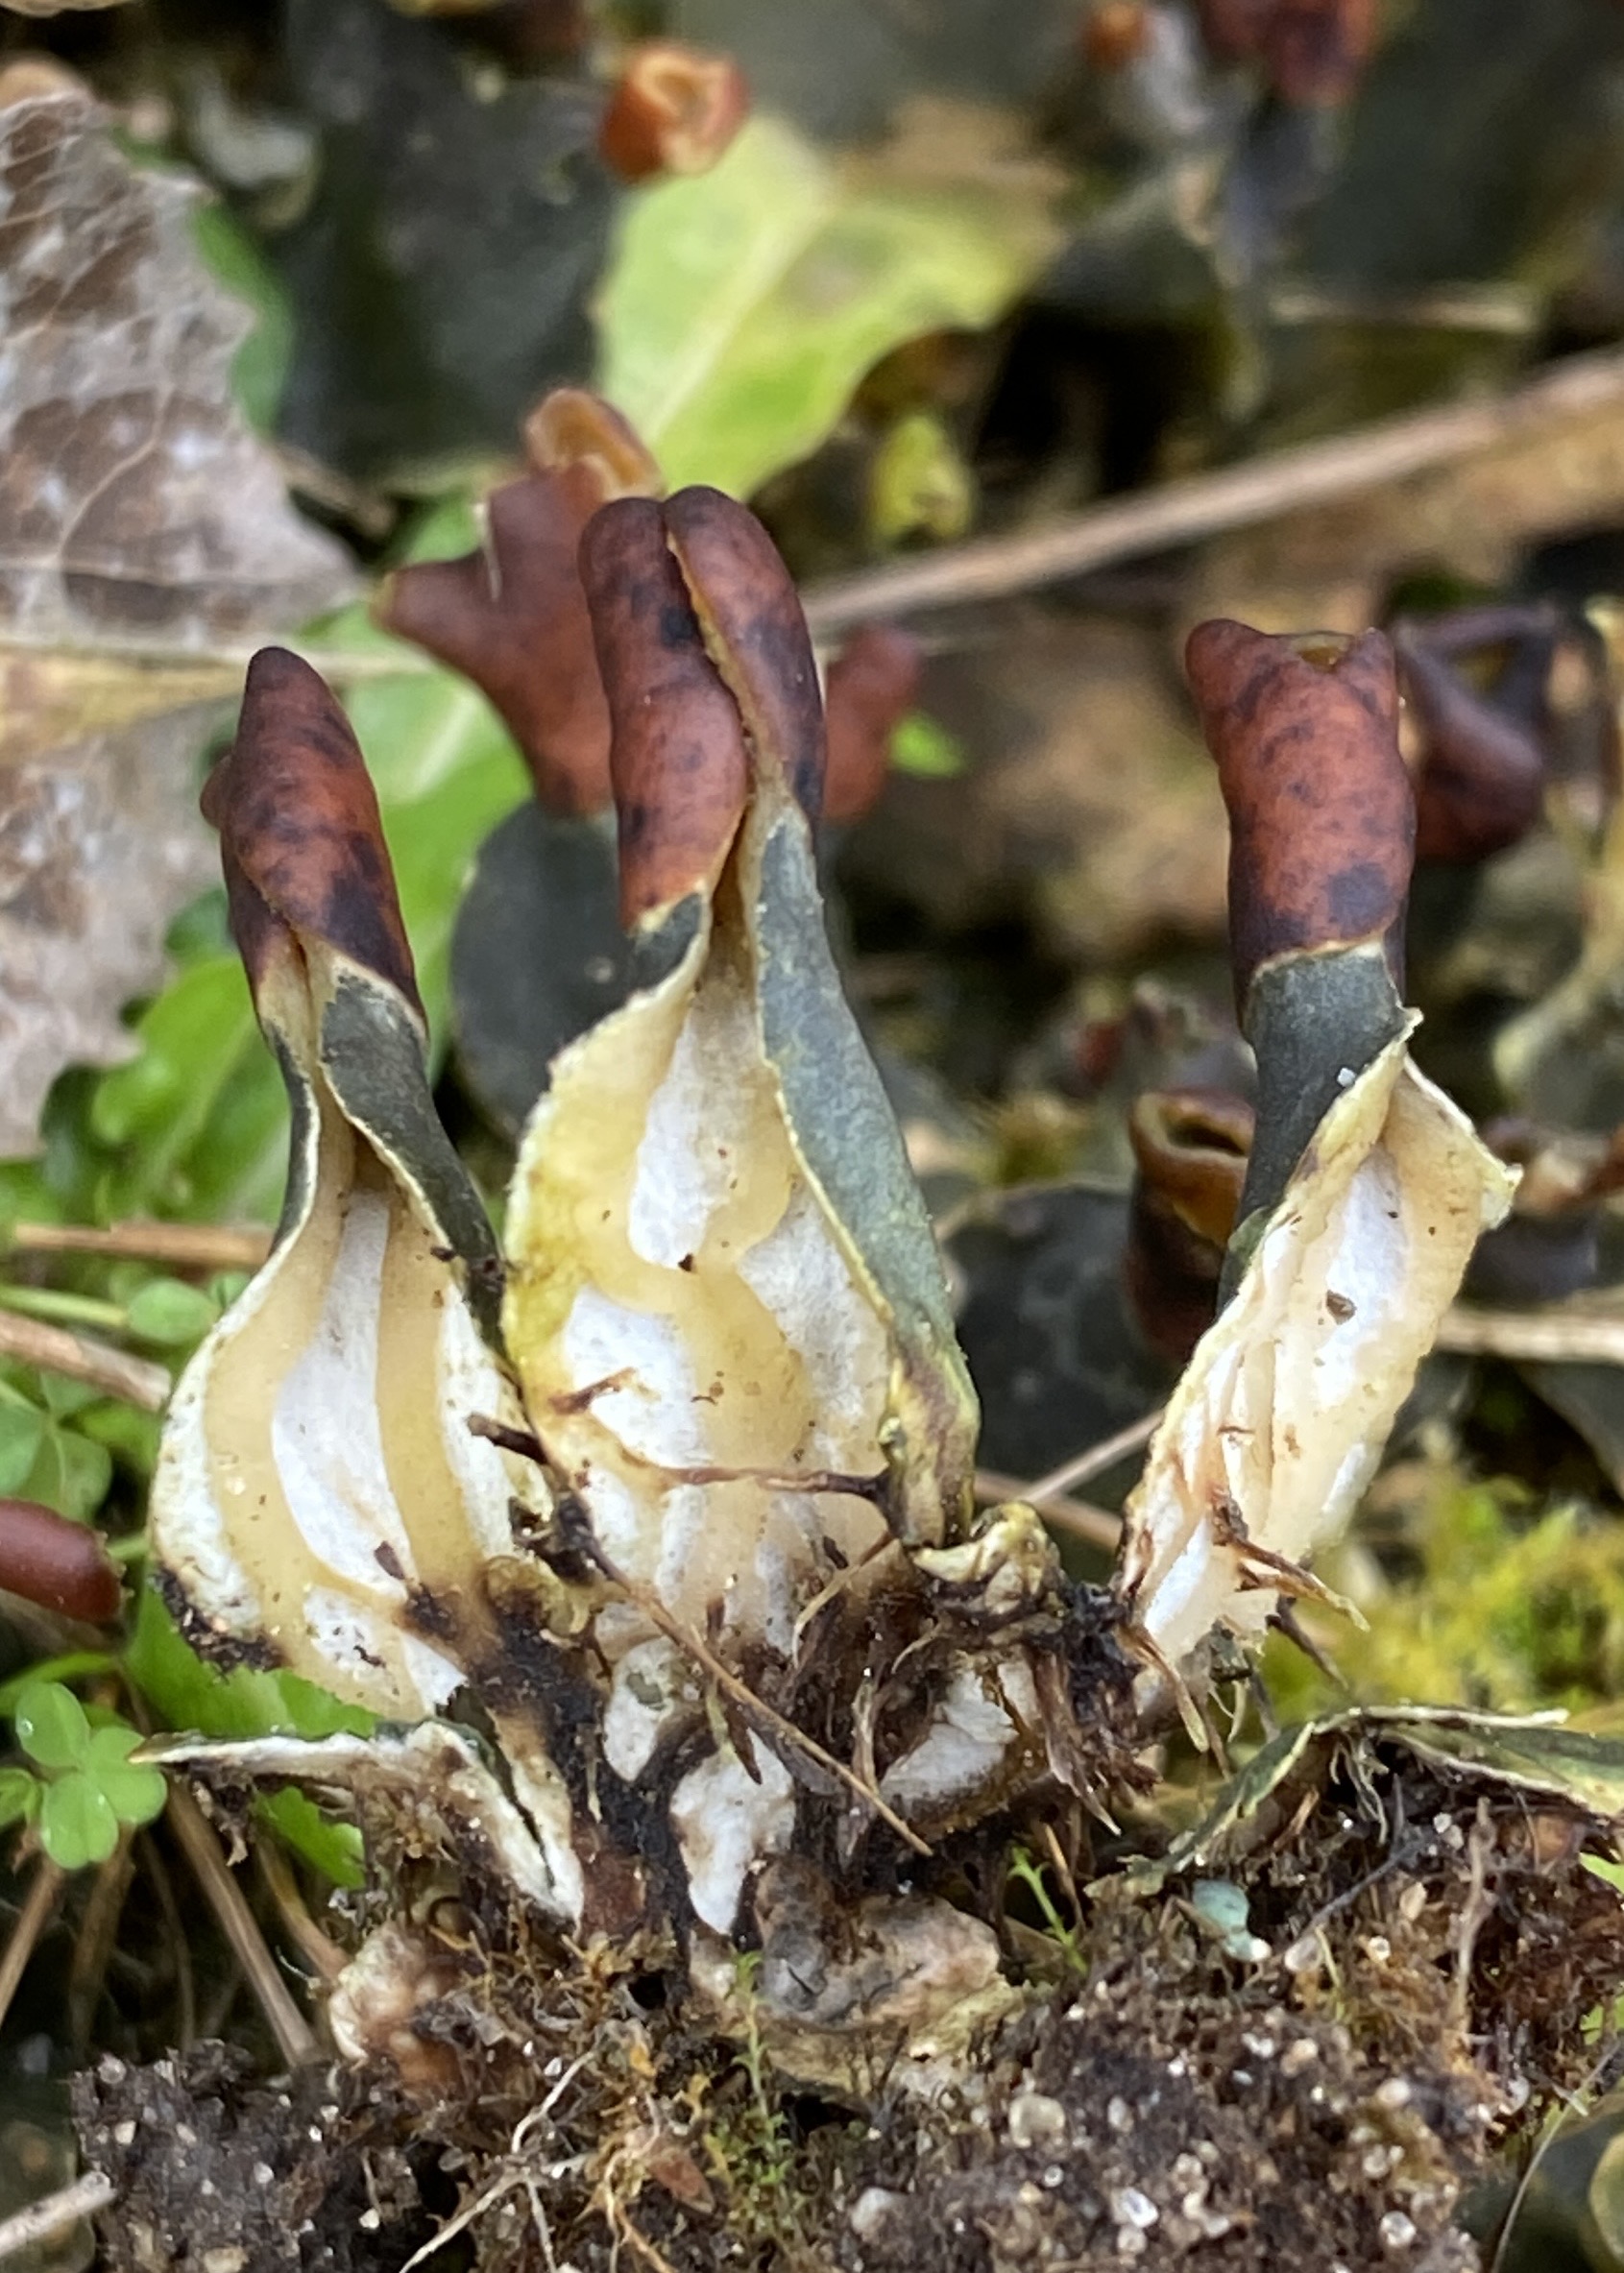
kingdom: Fungi
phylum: Ascomycota
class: Lecanoromycetes
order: Peltigerales
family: Peltigeraceae
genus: Peltigera
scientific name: Peltigera didactyla
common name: liden skjoldlav
